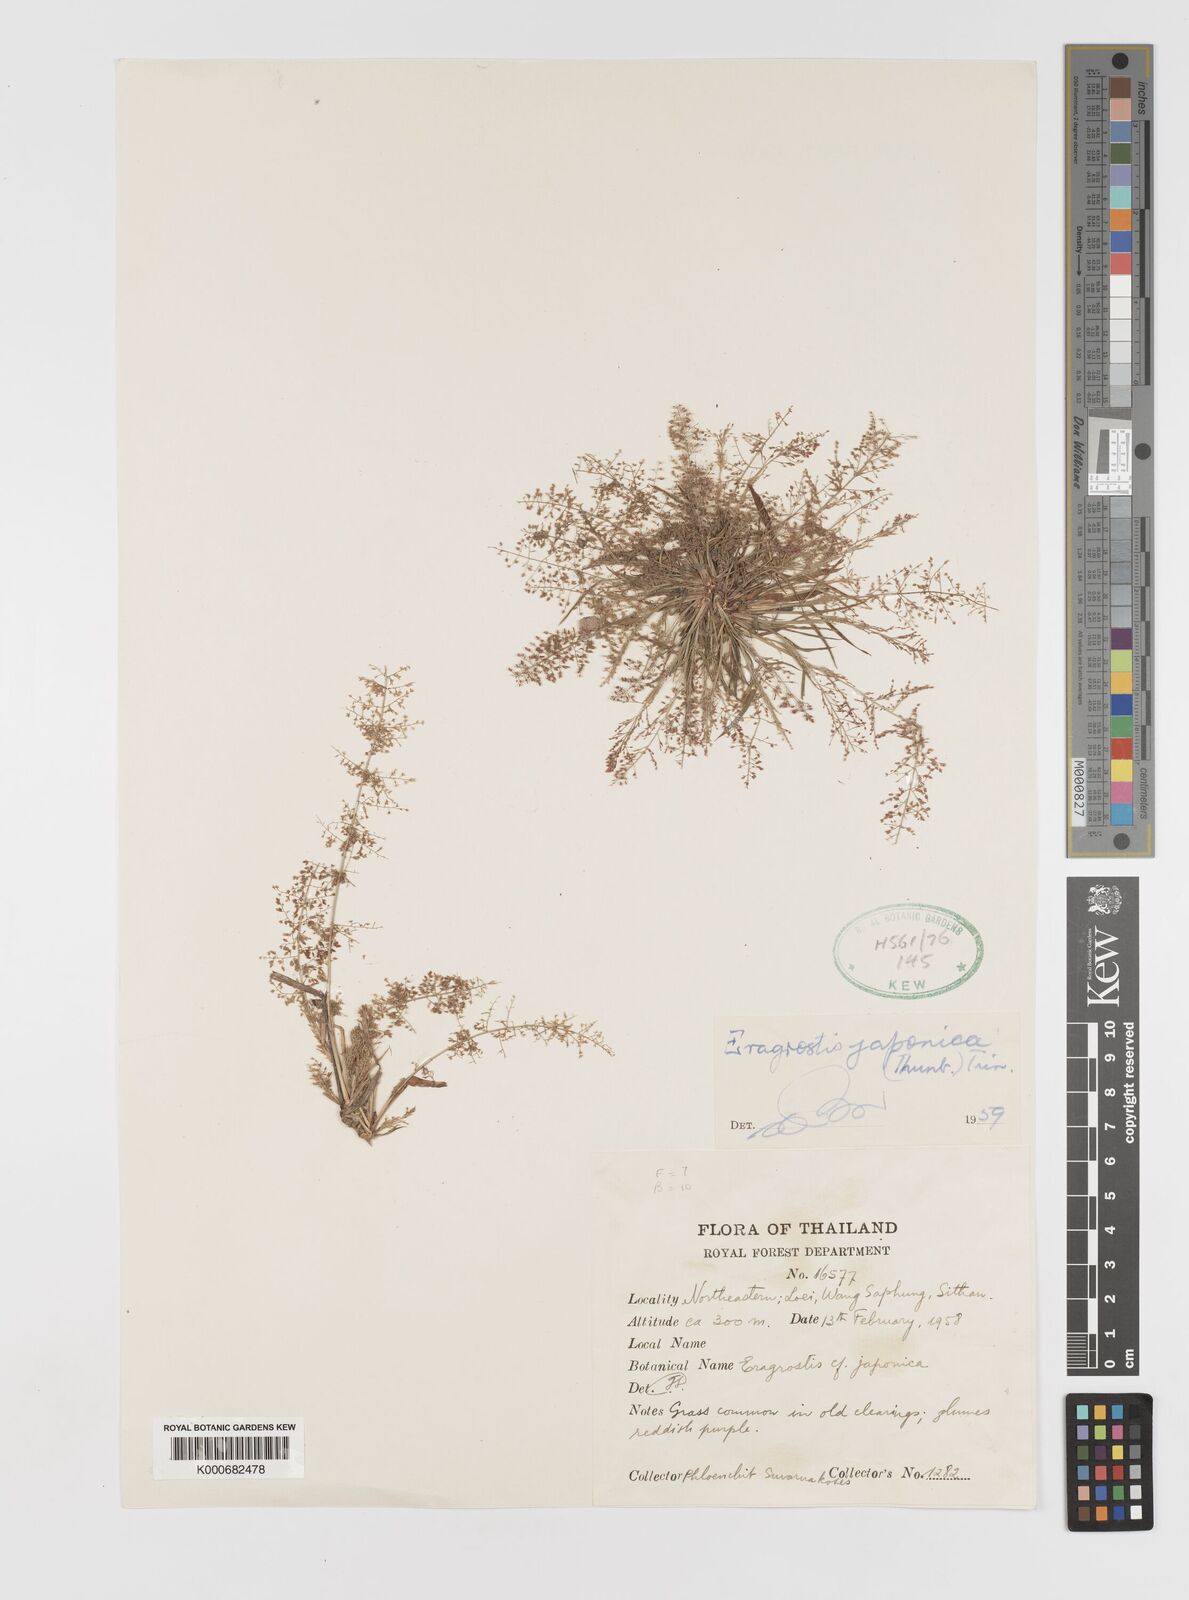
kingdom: Plantae
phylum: Tracheophyta
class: Liliopsida
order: Poales
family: Poaceae
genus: Eragrostis
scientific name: Eragrostis japonica
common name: Pond lovegrass
